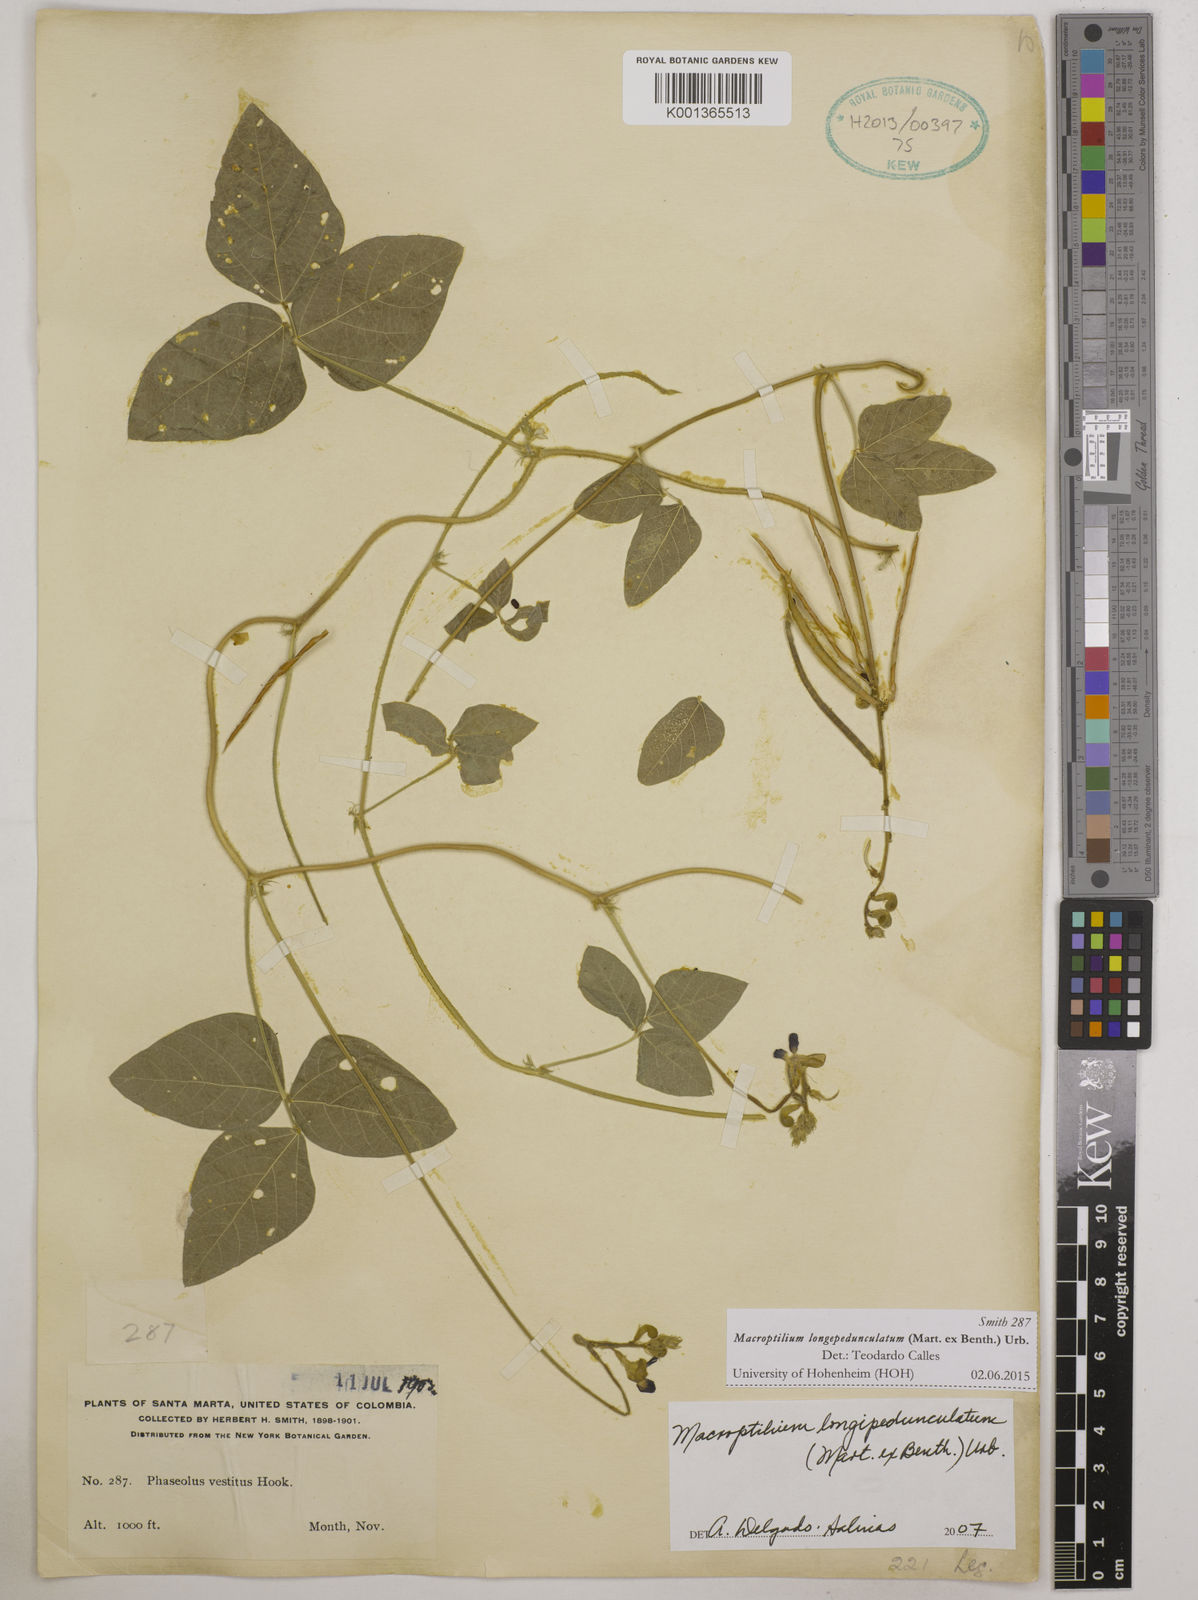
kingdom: Plantae
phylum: Tracheophyta
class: Magnoliopsida
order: Fabales
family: Fabaceae
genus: Macroptilium
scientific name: Macroptilium longepedunculatum
